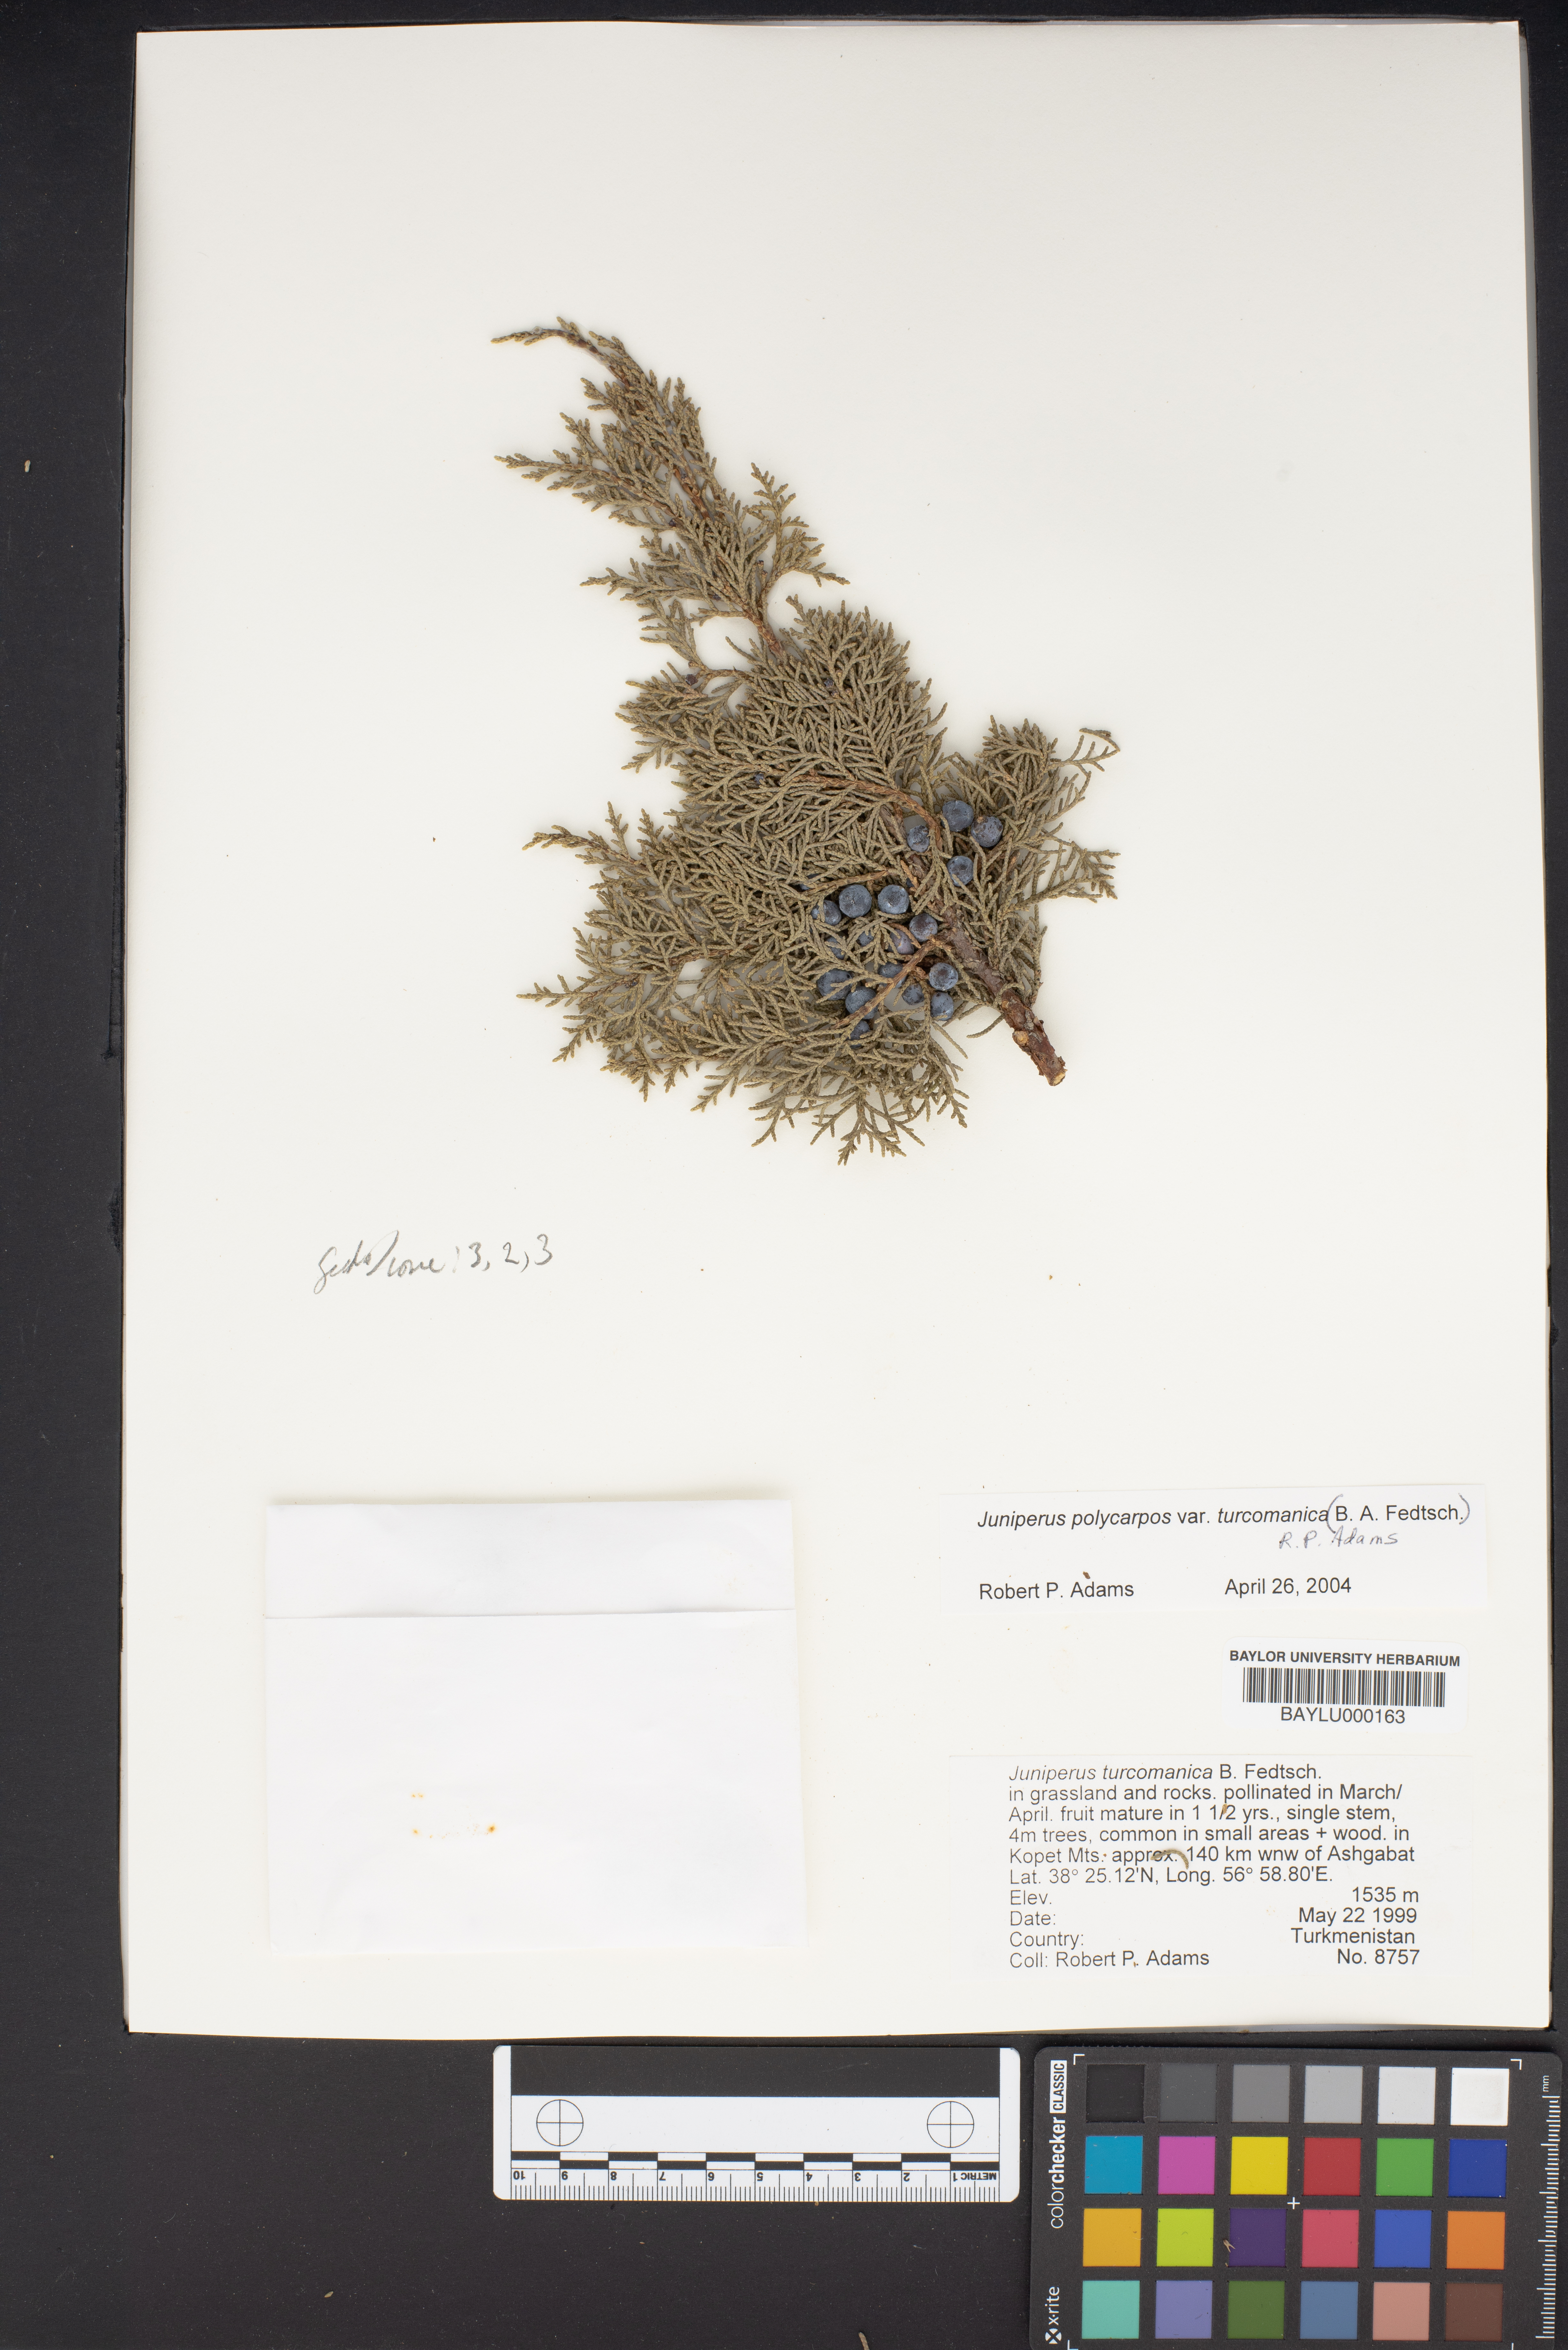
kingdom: Plantae
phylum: Tracheophyta
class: Pinopsida
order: Pinales
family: Cupressaceae
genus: Juniperus
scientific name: Juniperus
